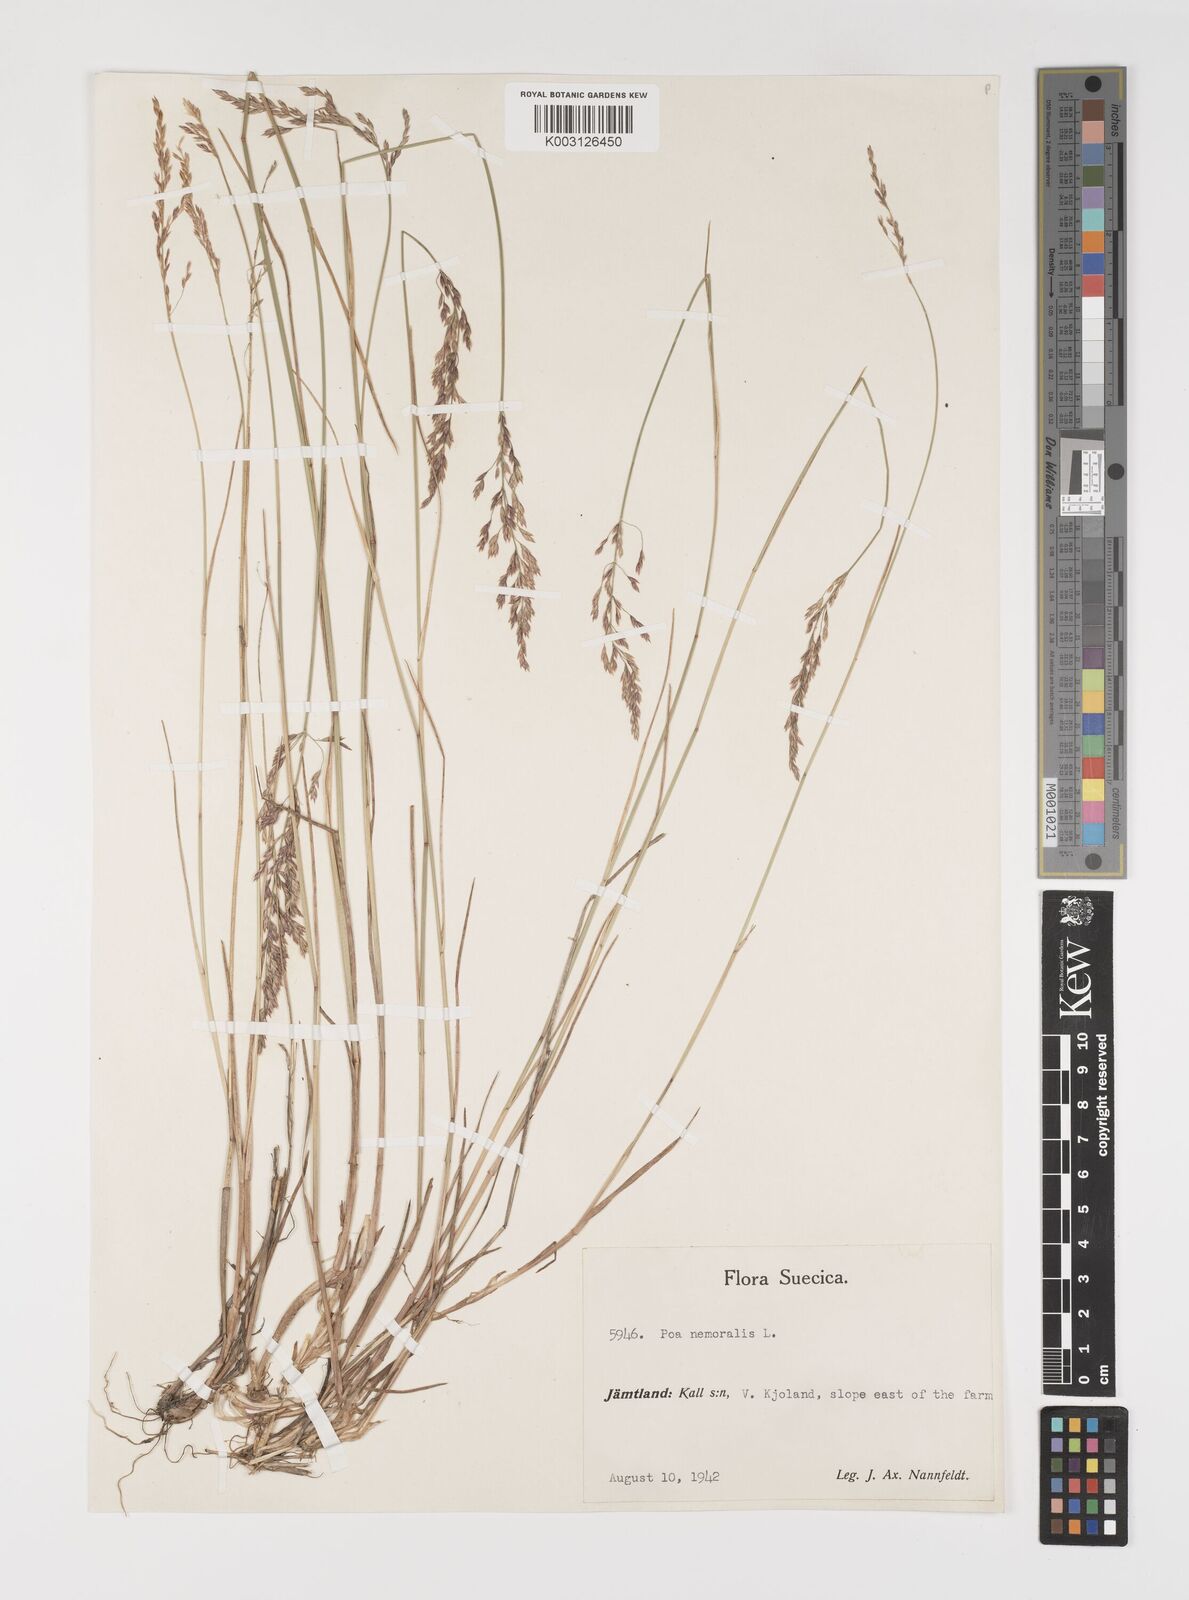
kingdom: Plantae
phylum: Tracheophyta
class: Liliopsida
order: Poales
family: Poaceae
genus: Poa
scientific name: Poa nemoralis
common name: Wood bluegrass
